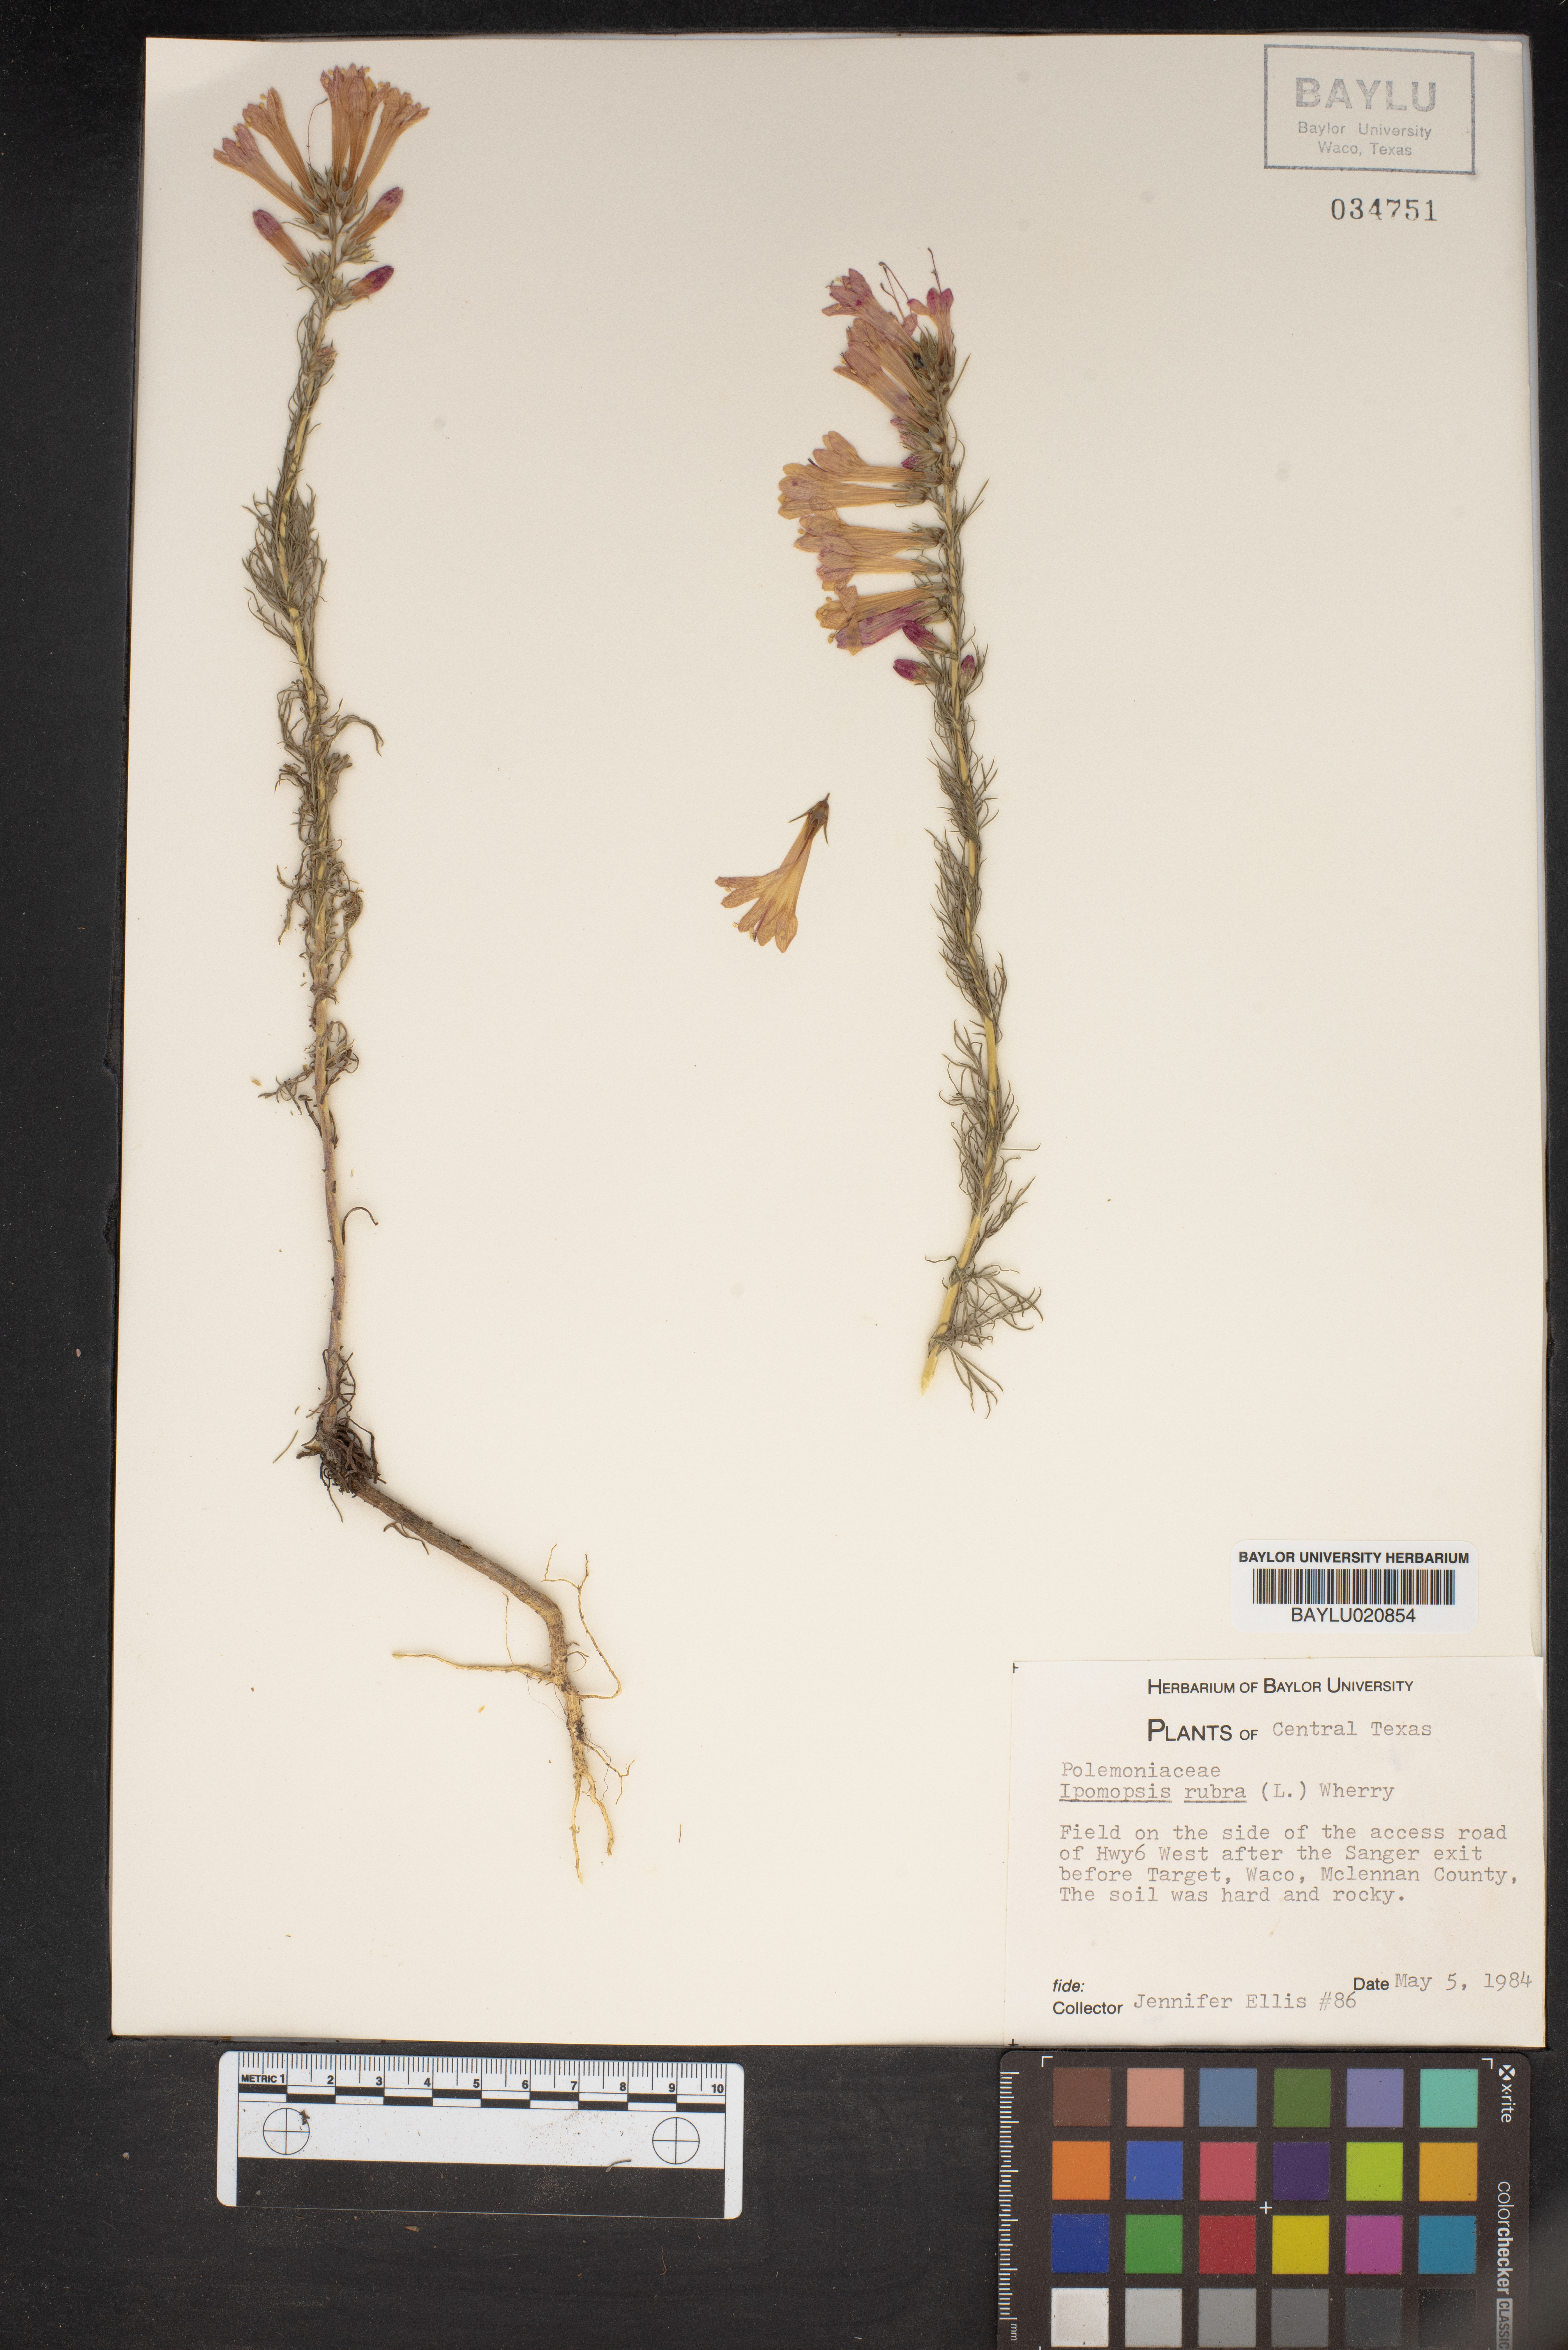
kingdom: Plantae
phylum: Tracheophyta
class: Magnoliopsida
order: Ericales
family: Polemoniaceae
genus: Ipomopsis
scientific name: Ipomopsis rubra
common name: Skyrocket
